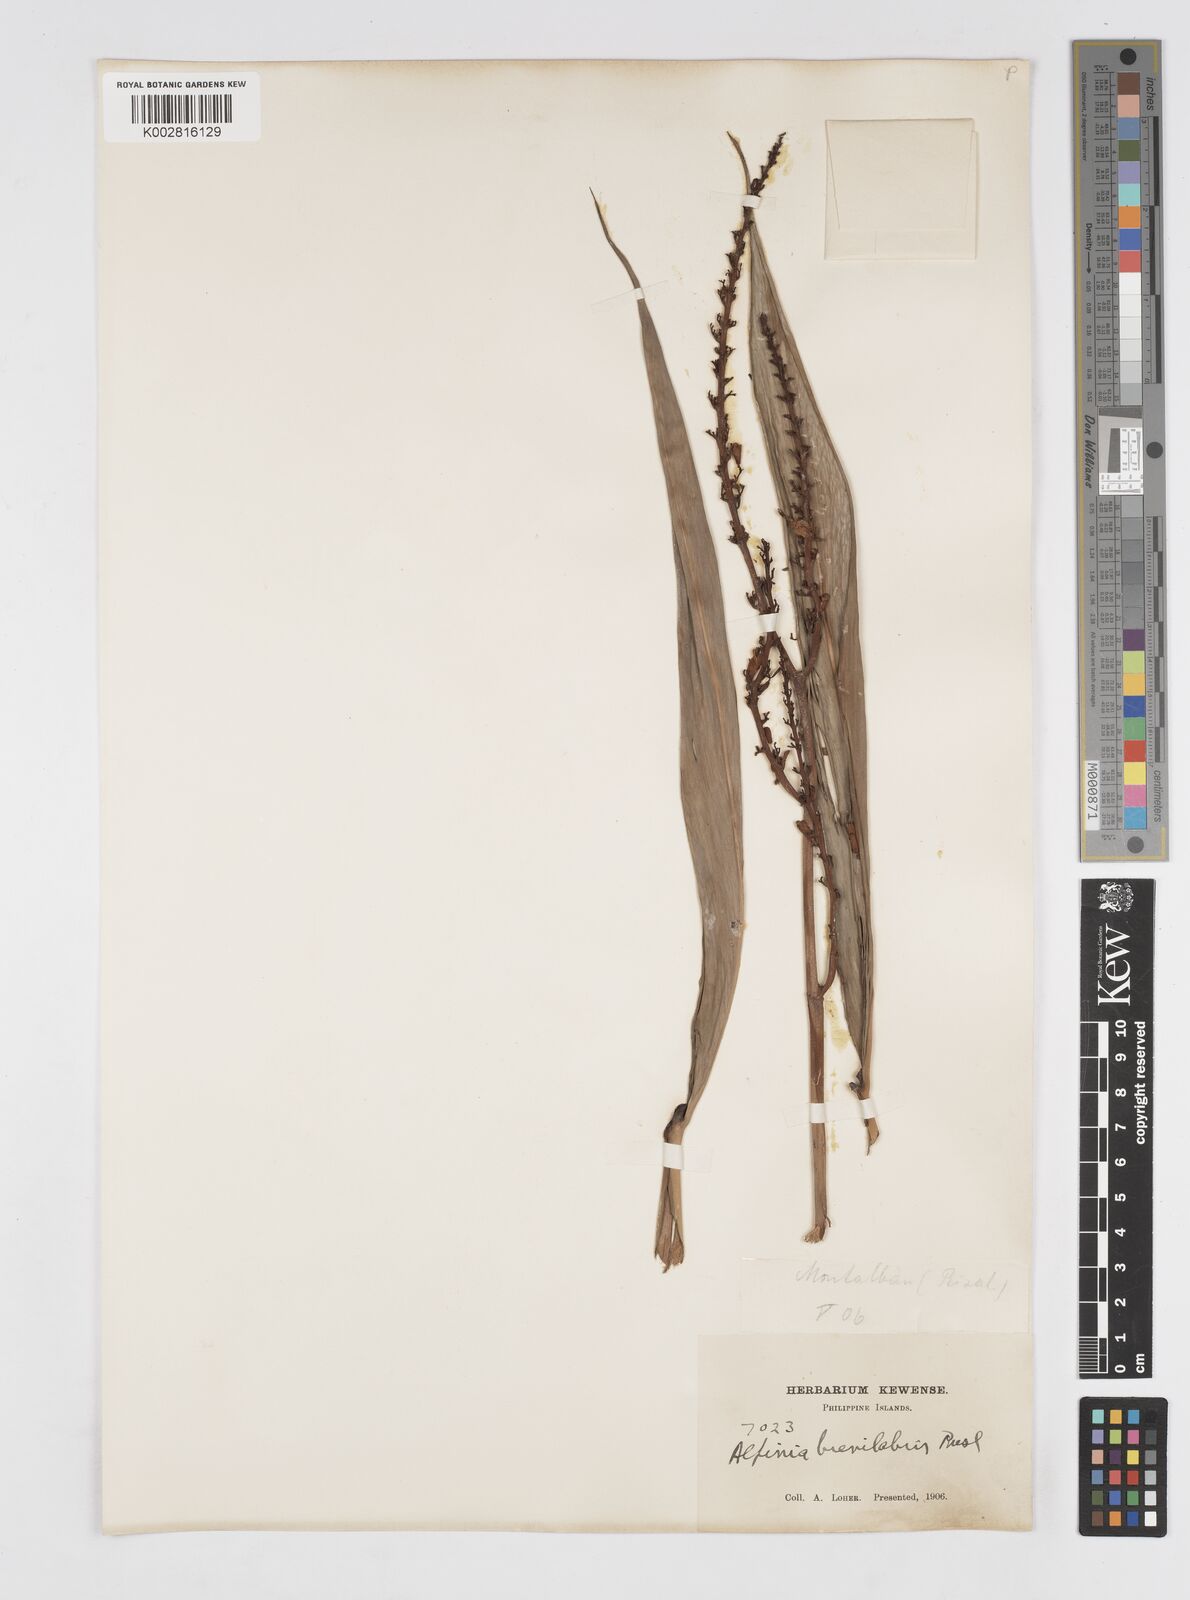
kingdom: Plantae
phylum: Tracheophyta
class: Liliopsida
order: Zingiberales
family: Zingiberaceae
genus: Alpinia
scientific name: Alpinia brevilabris
